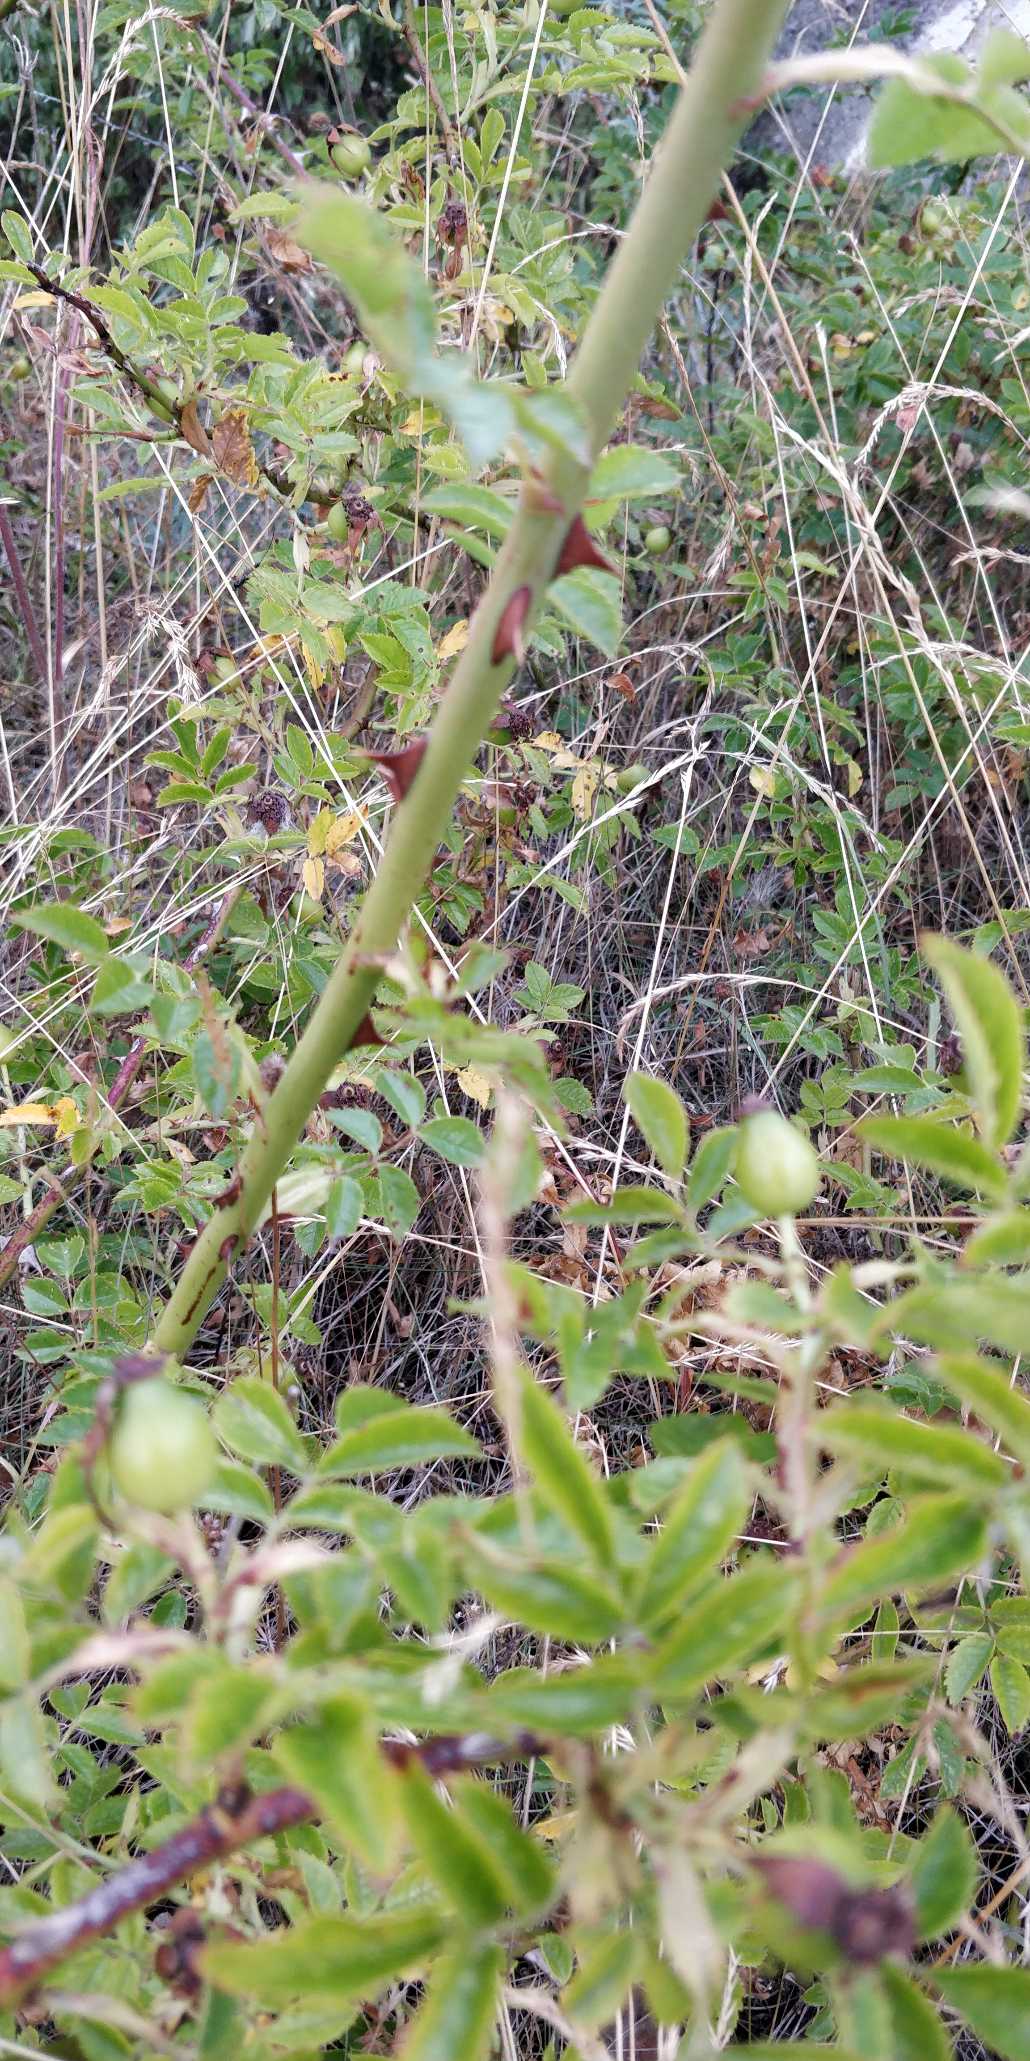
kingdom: Plantae
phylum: Tracheophyta
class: Magnoliopsida
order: Rosales
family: Rosaceae
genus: Rosa
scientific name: Rosa canina
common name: Hunde-rose
